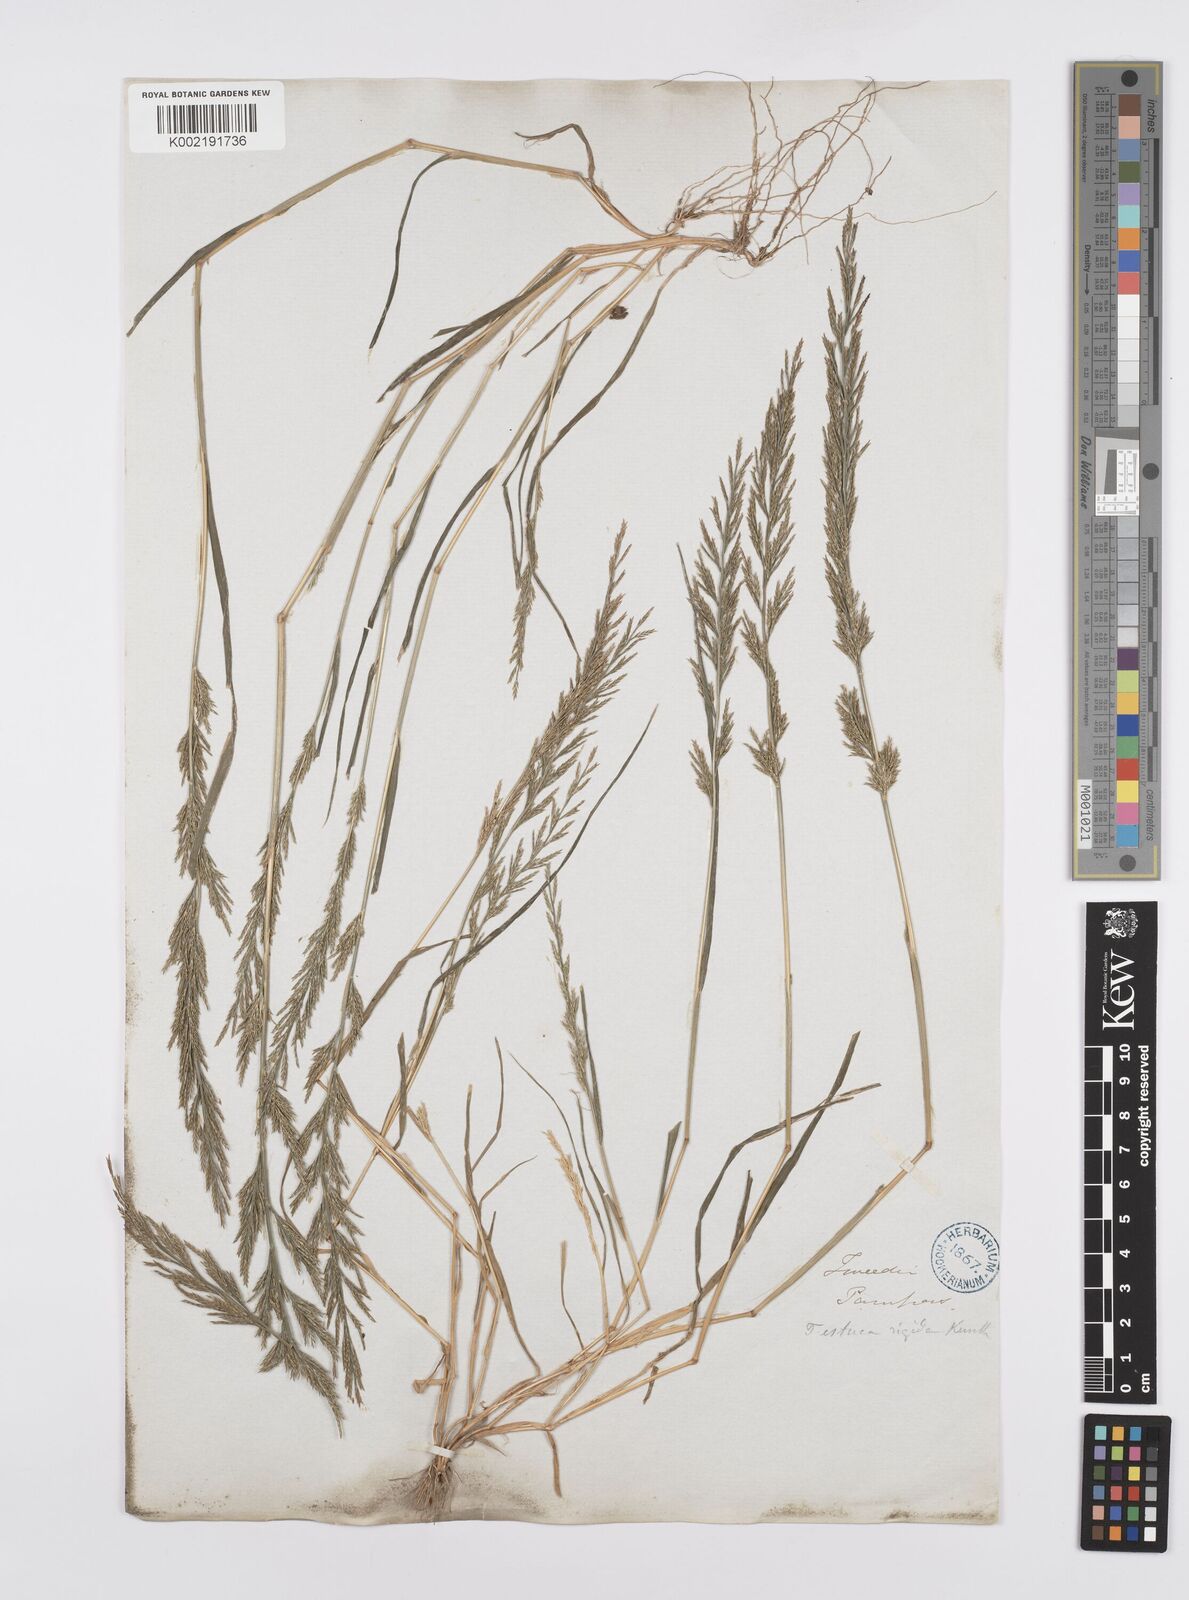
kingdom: Plantae
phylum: Tracheophyta
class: Liliopsida
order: Poales
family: Poaceae
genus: Catapodium
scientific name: Catapodium rigidum
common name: Fern-grass
